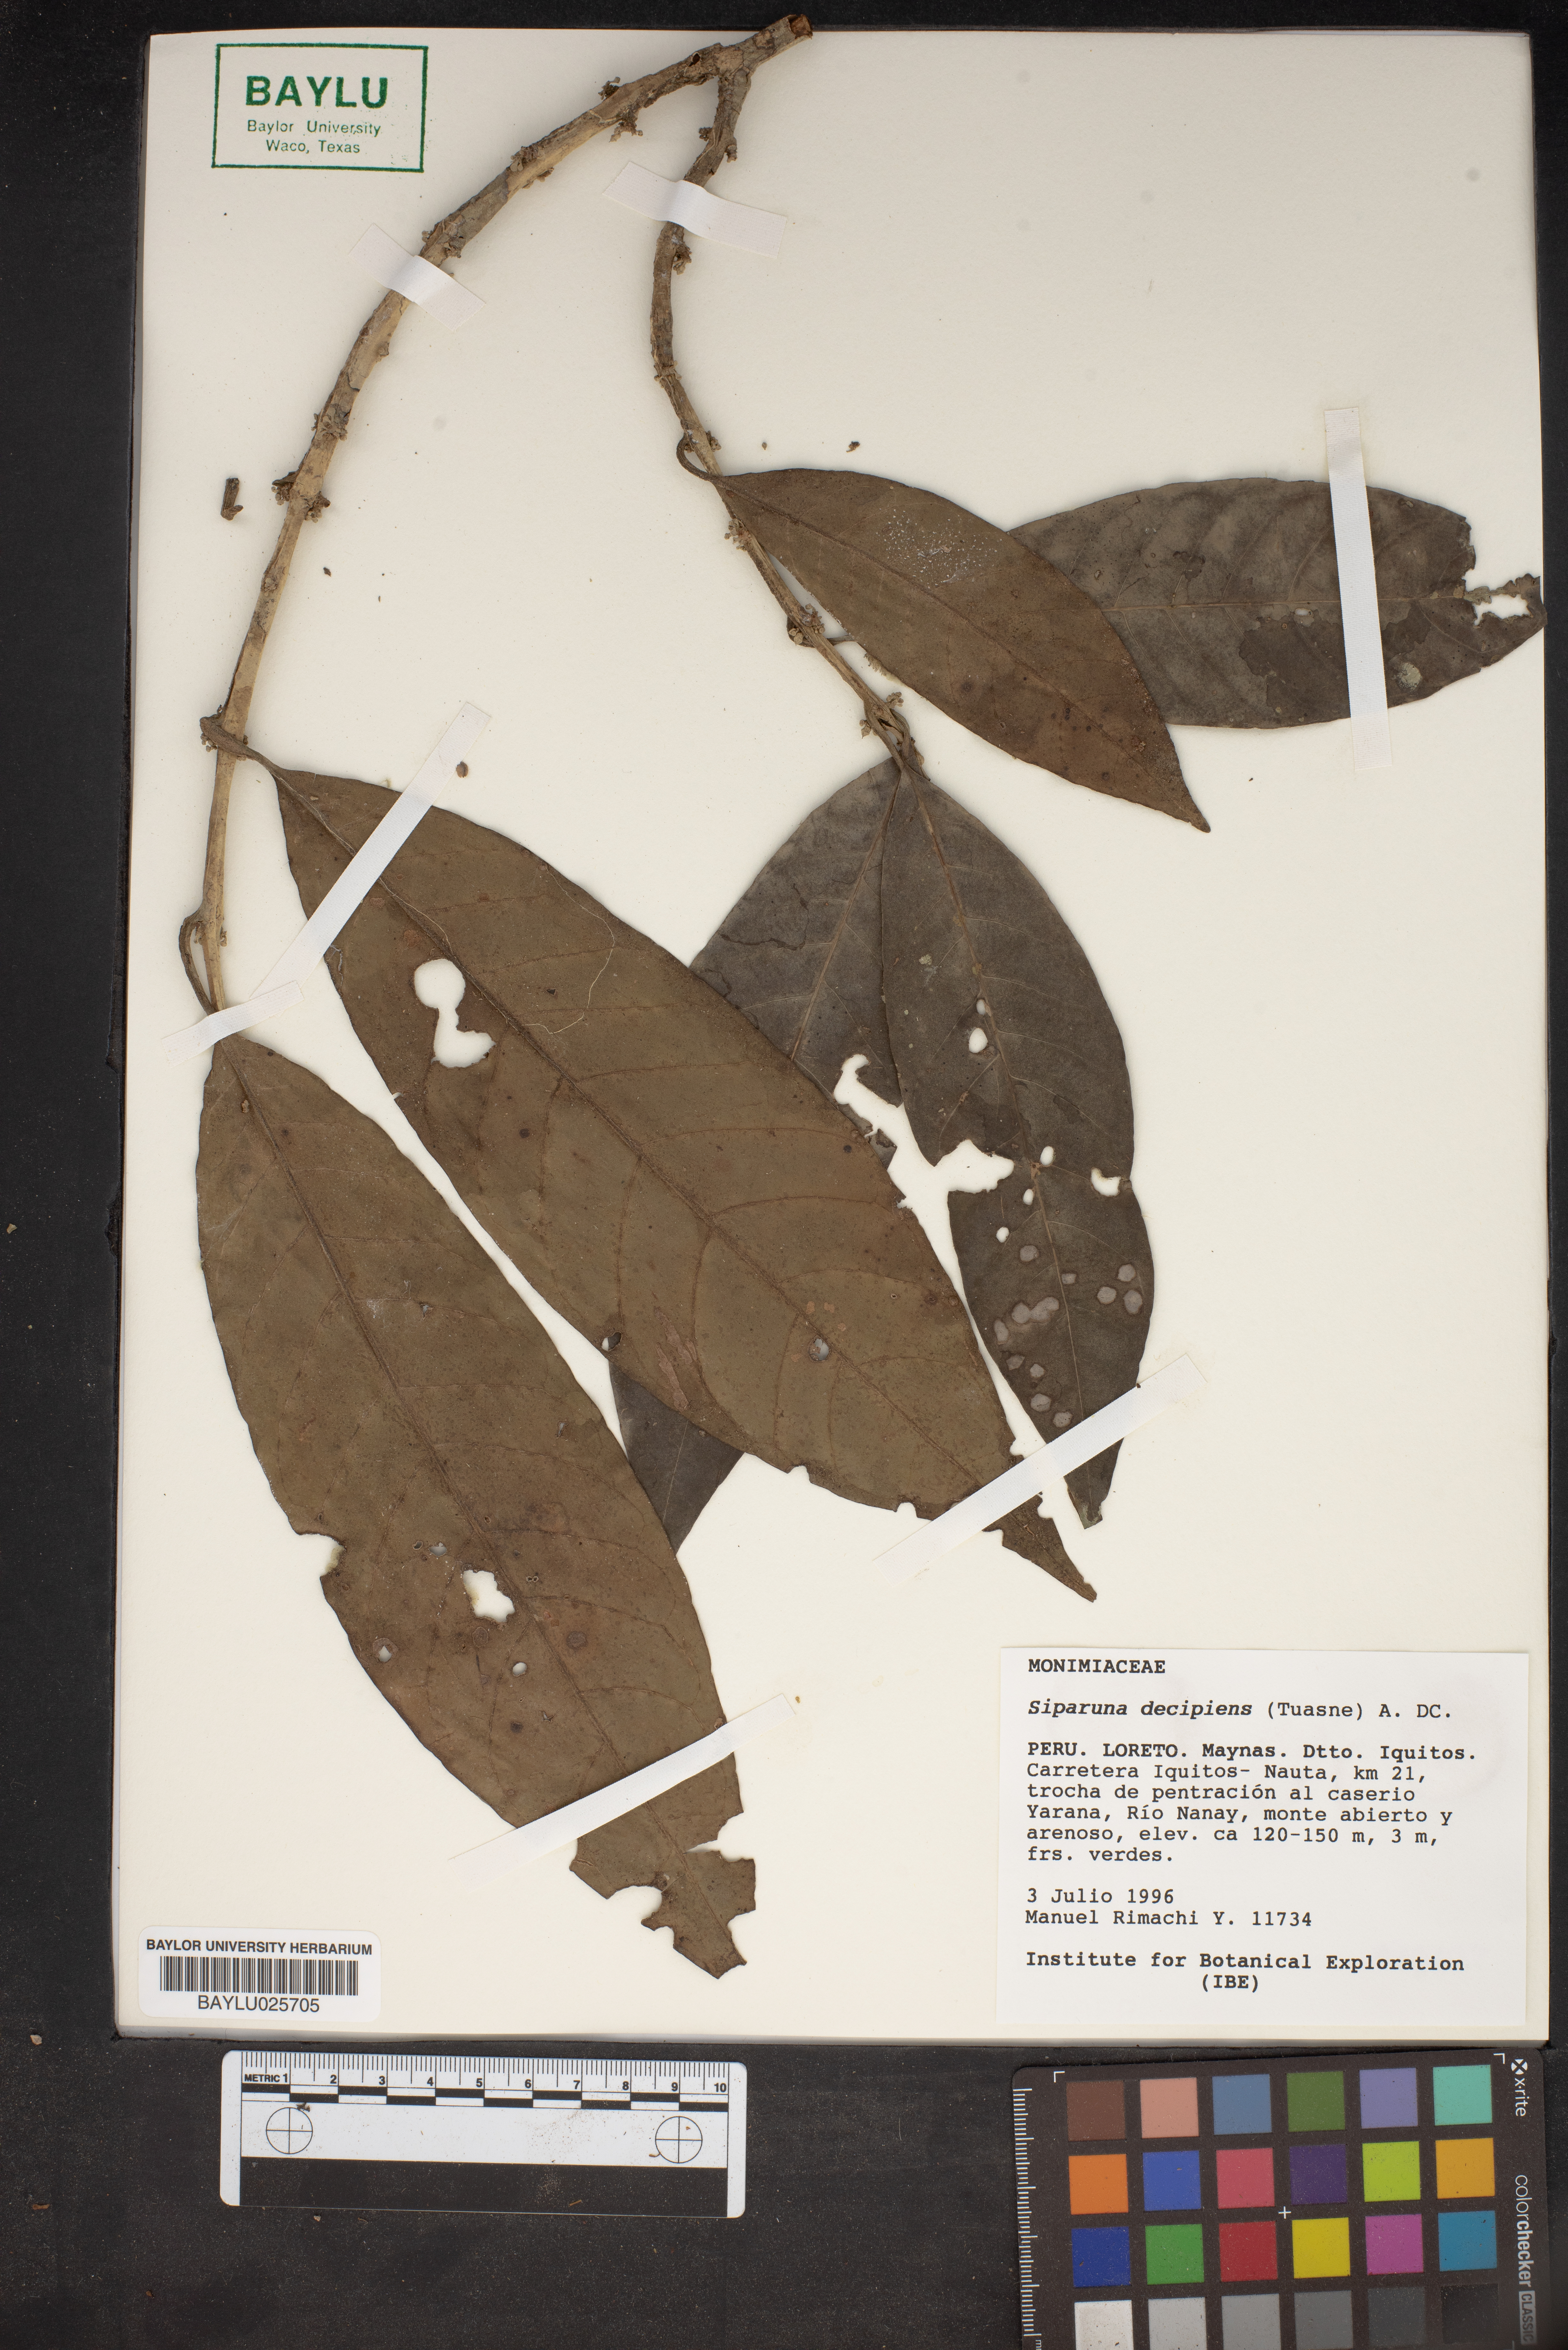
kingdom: Plantae
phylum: Tracheophyta
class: Magnoliopsida
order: Laurales
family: Siparunaceae
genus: Siparuna
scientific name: Siparuna decipiens
